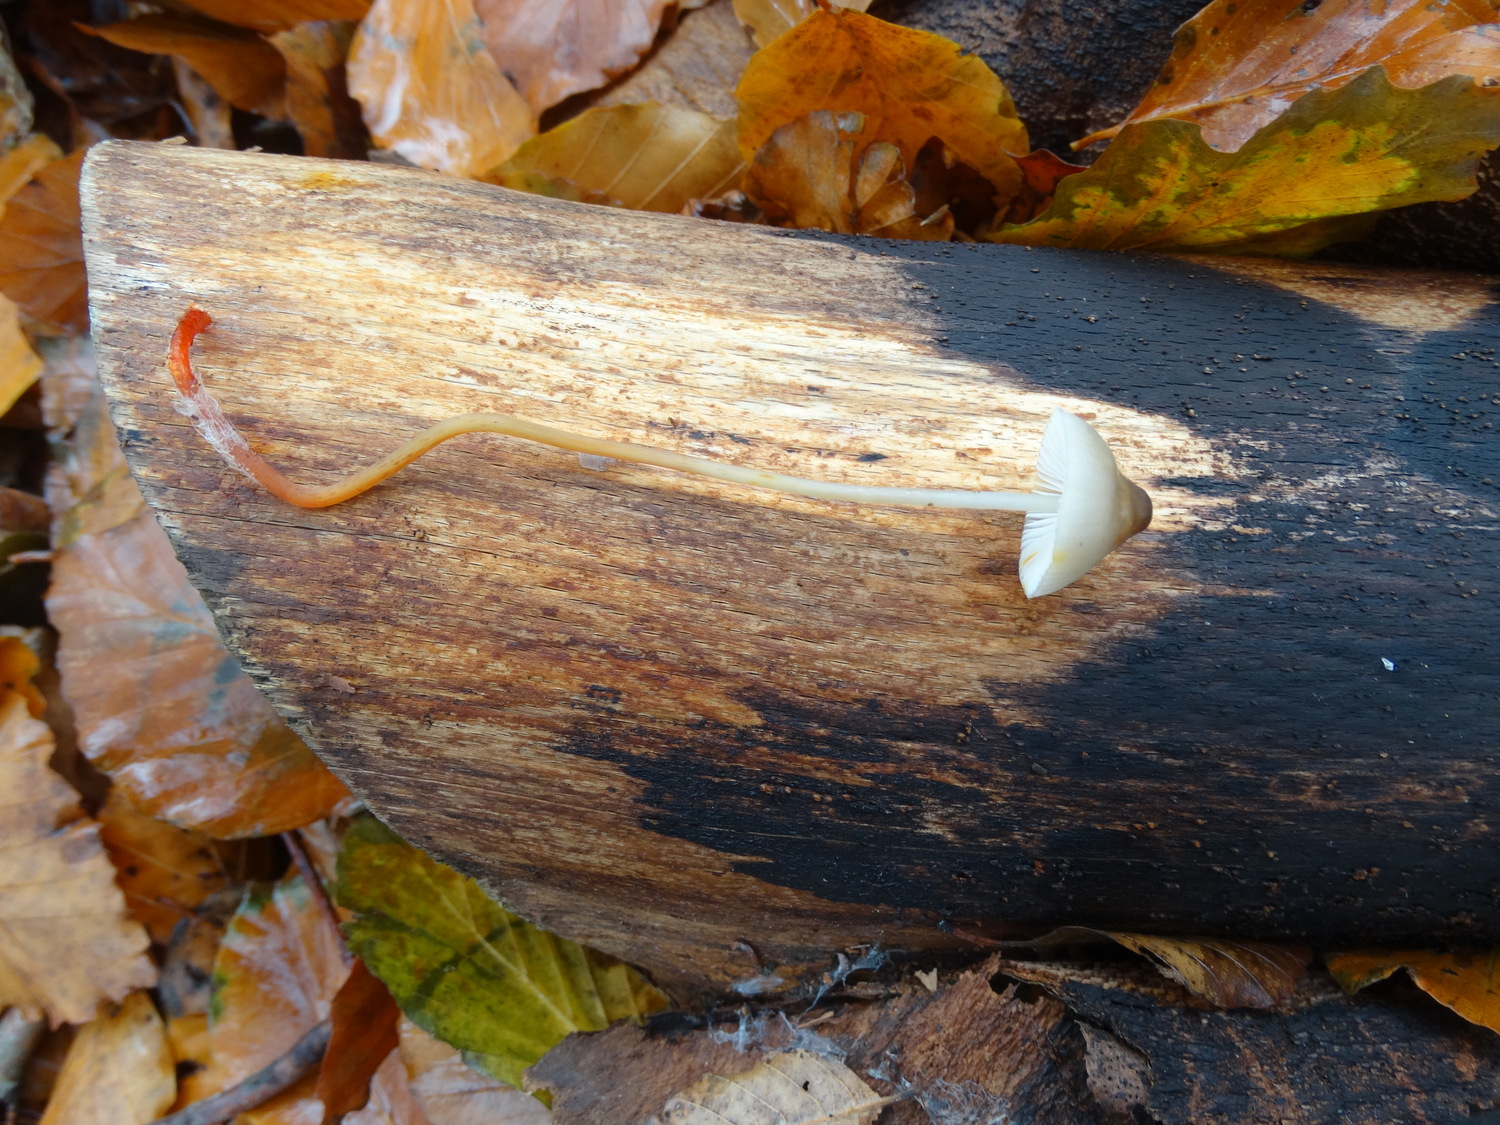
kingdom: Fungi
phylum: Basidiomycota
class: Agaricomycetes
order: Agaricales
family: Mycenaceae
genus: Mycena
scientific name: Mycena crocata
